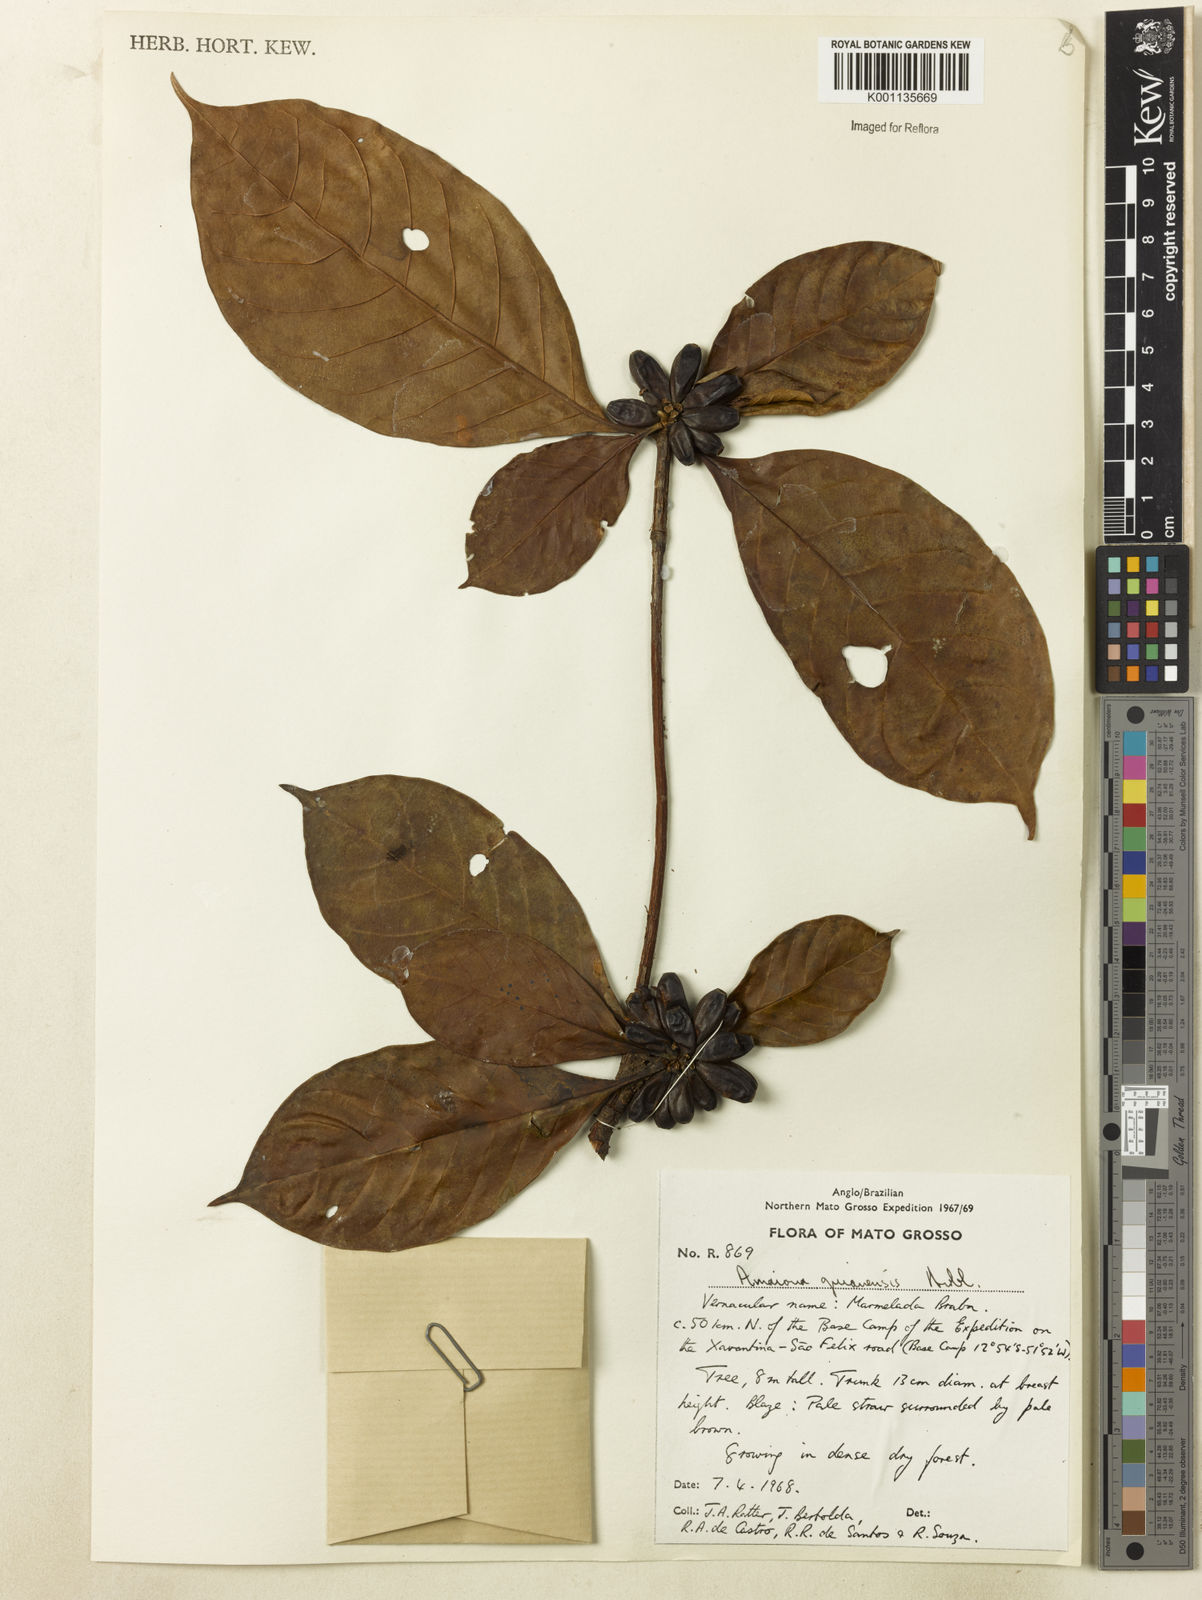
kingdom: Plantae
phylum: Tracheophyta
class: Magnoliopsida
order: Gentianales
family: Rubiaceae
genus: Amaioua
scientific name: Amaioua guianensis
